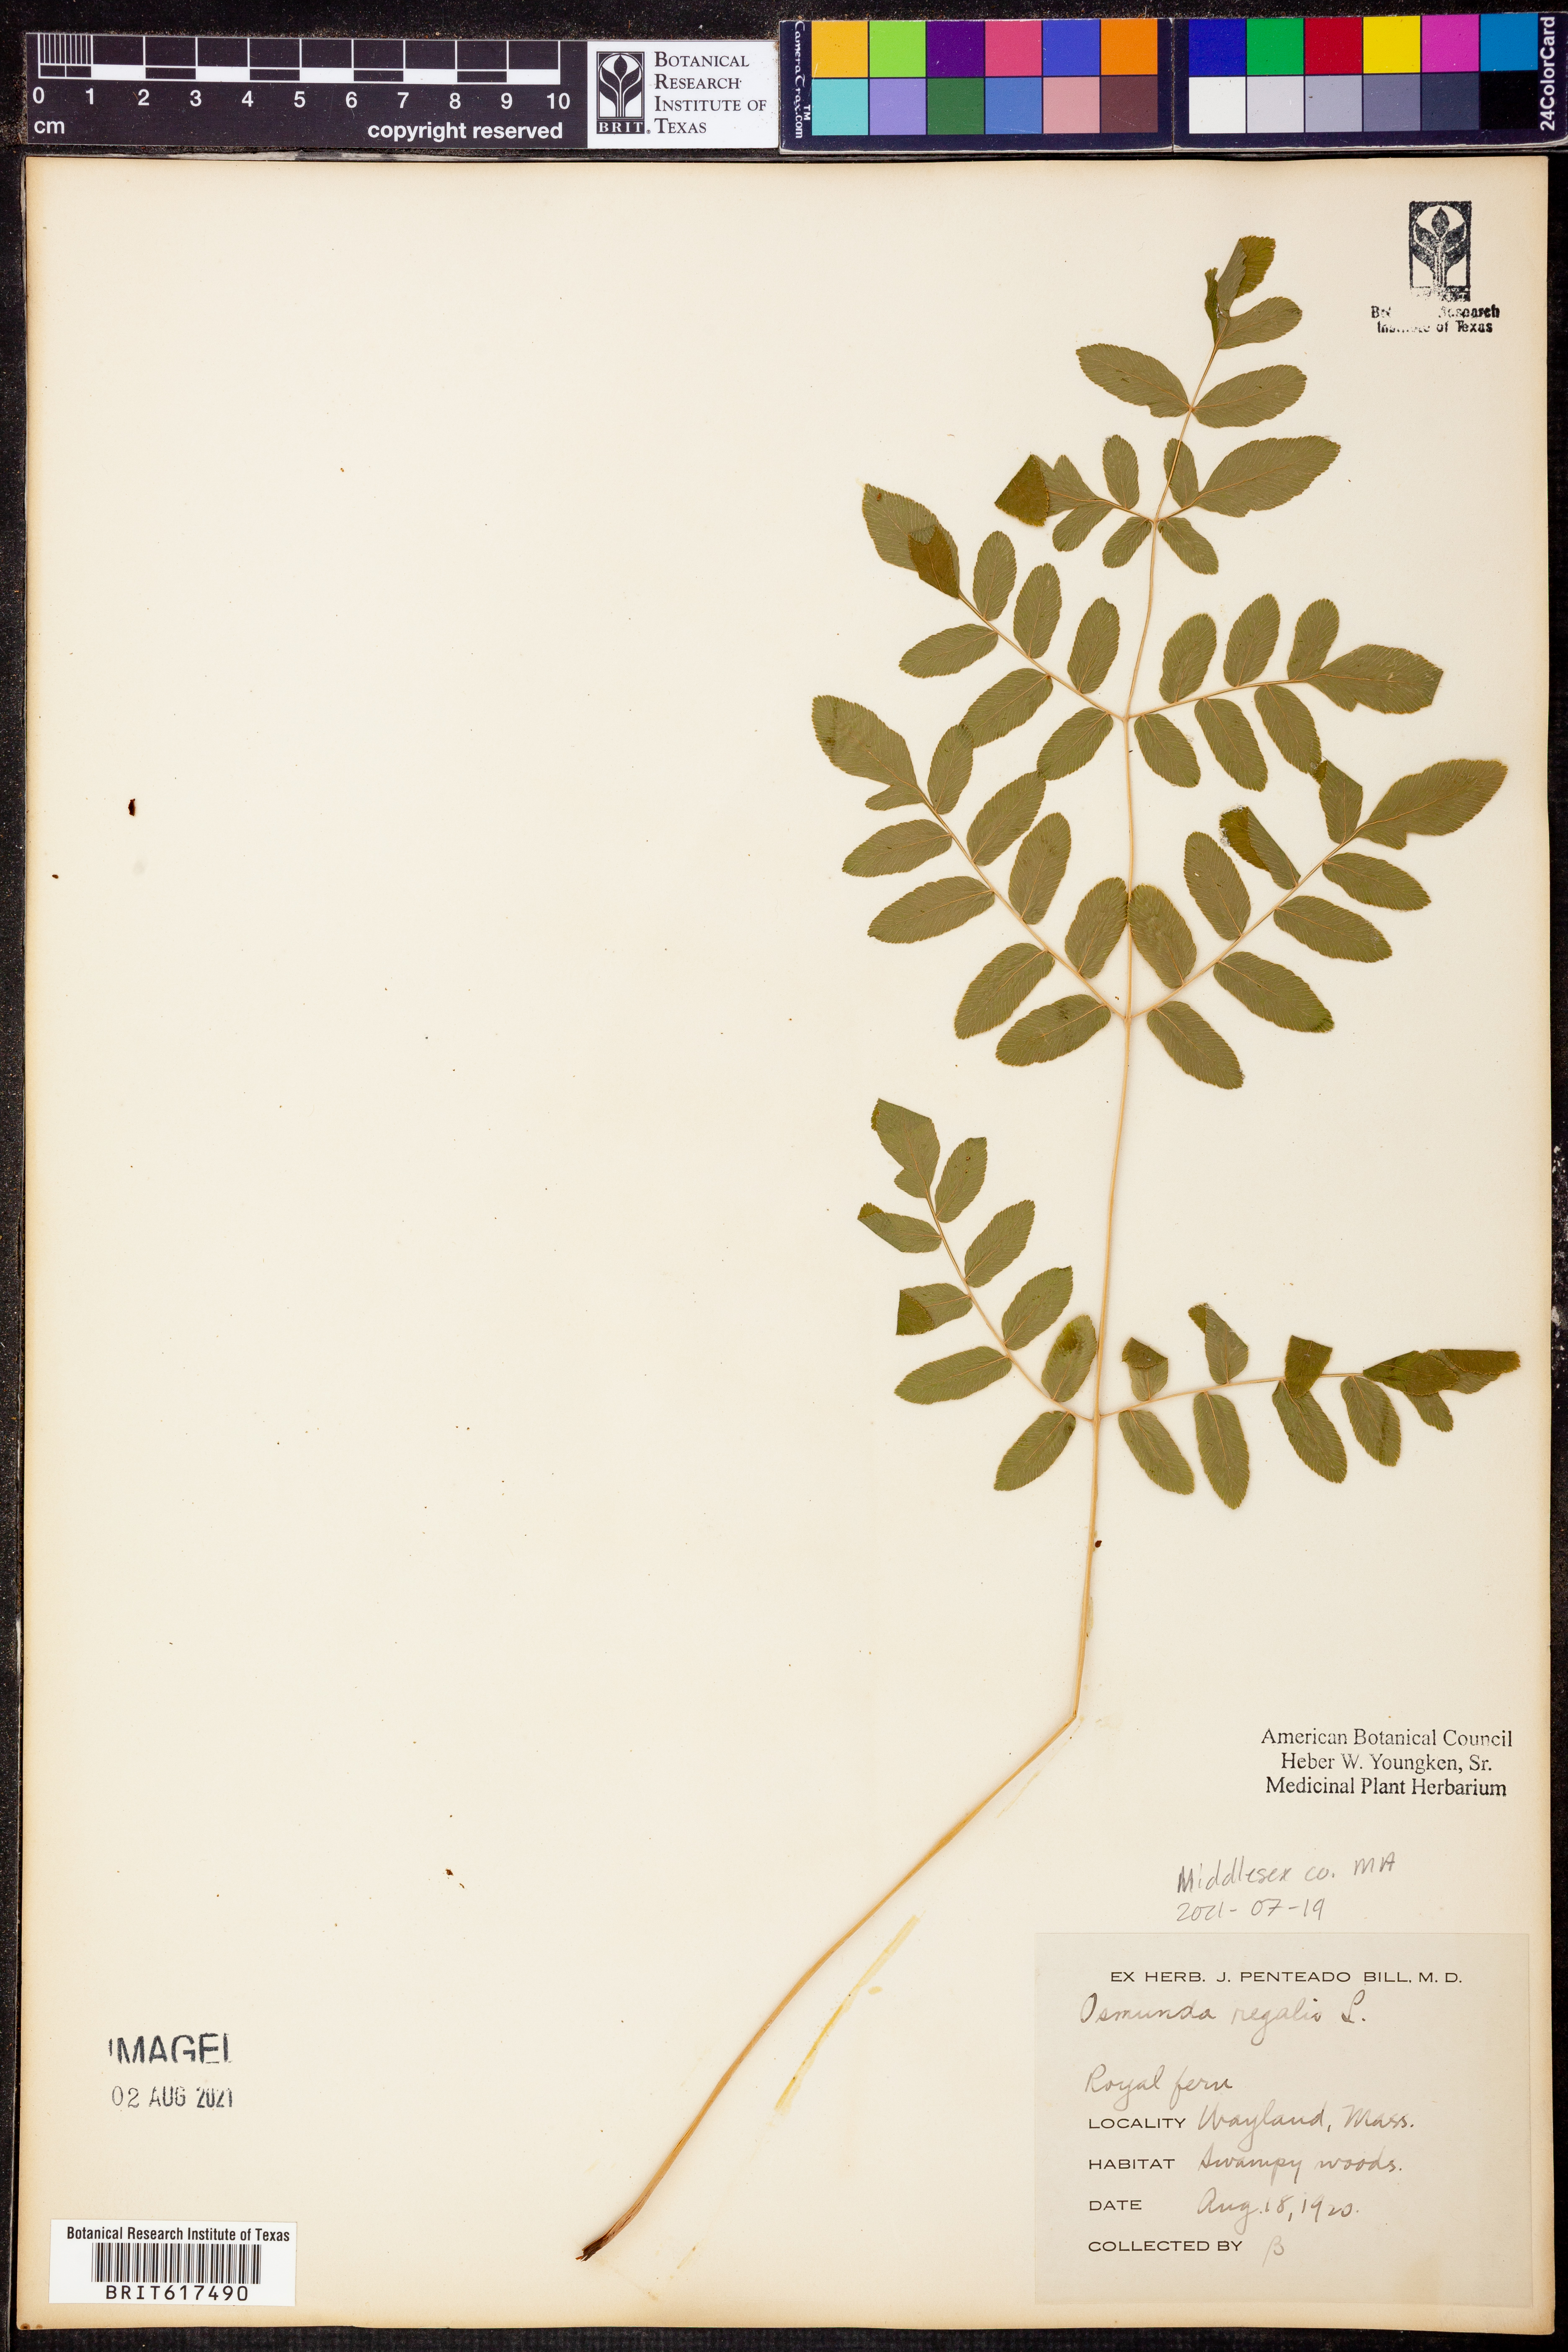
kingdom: Plantae
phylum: Tracheophyta
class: Polypodiopsida
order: Osmundales
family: Osmundaceae
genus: Osmunda
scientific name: Osmunda regalis
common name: Royal fern
